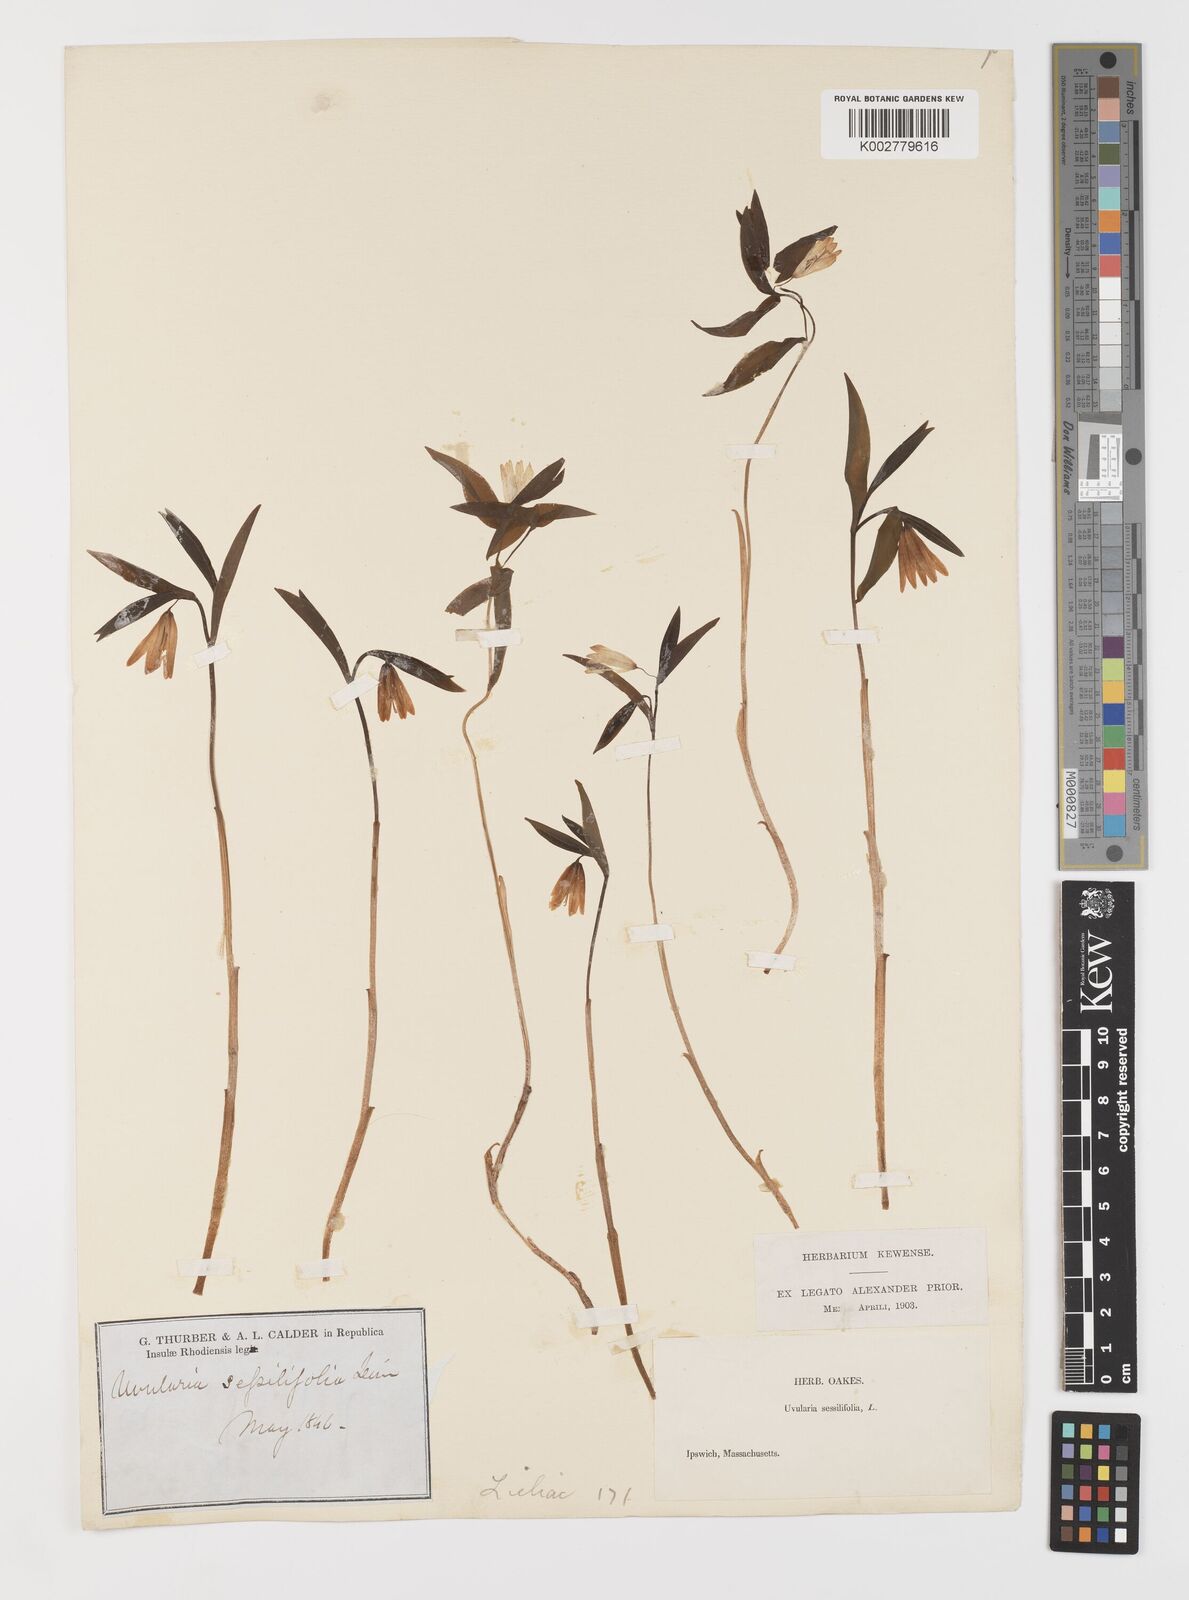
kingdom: Plantae
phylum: Tracheophyta
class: Liliopsida
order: Liliales
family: Colchicaceae
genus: Uvularia
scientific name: Uvularia sessilifolia
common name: Straw-lily
